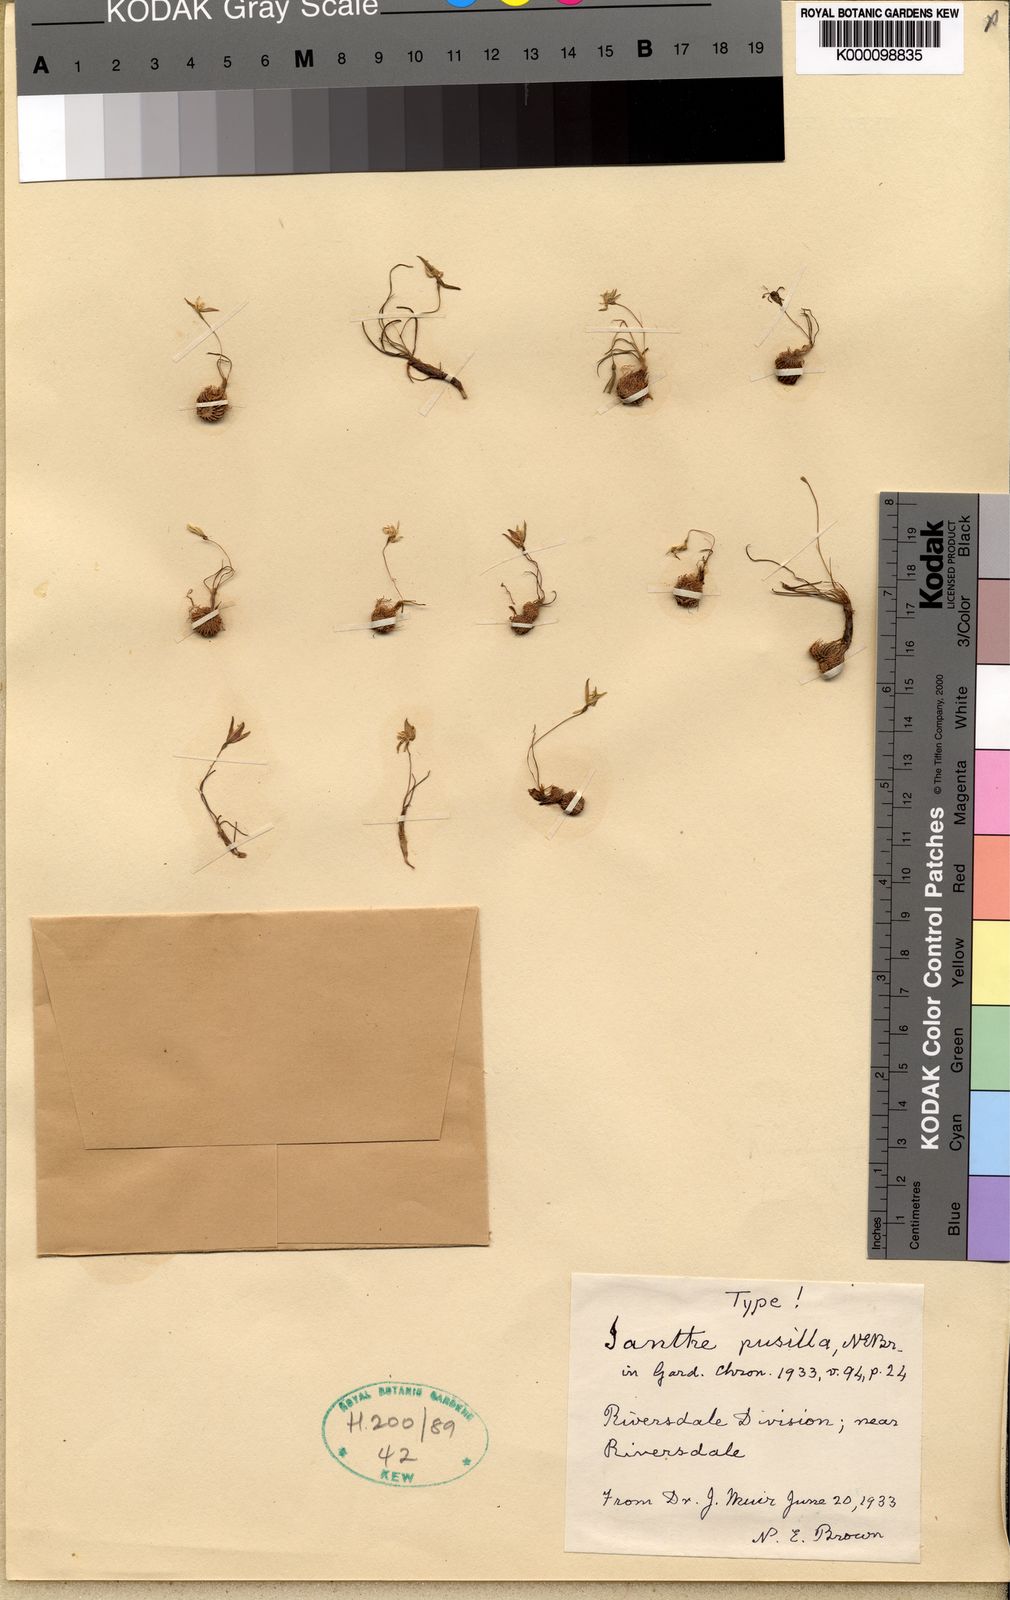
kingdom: Plantae
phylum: Tracheophyta
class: Liliopsida
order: Asparagales
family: Hypoxidaceae
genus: Hypoxis
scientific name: Hypoxis
